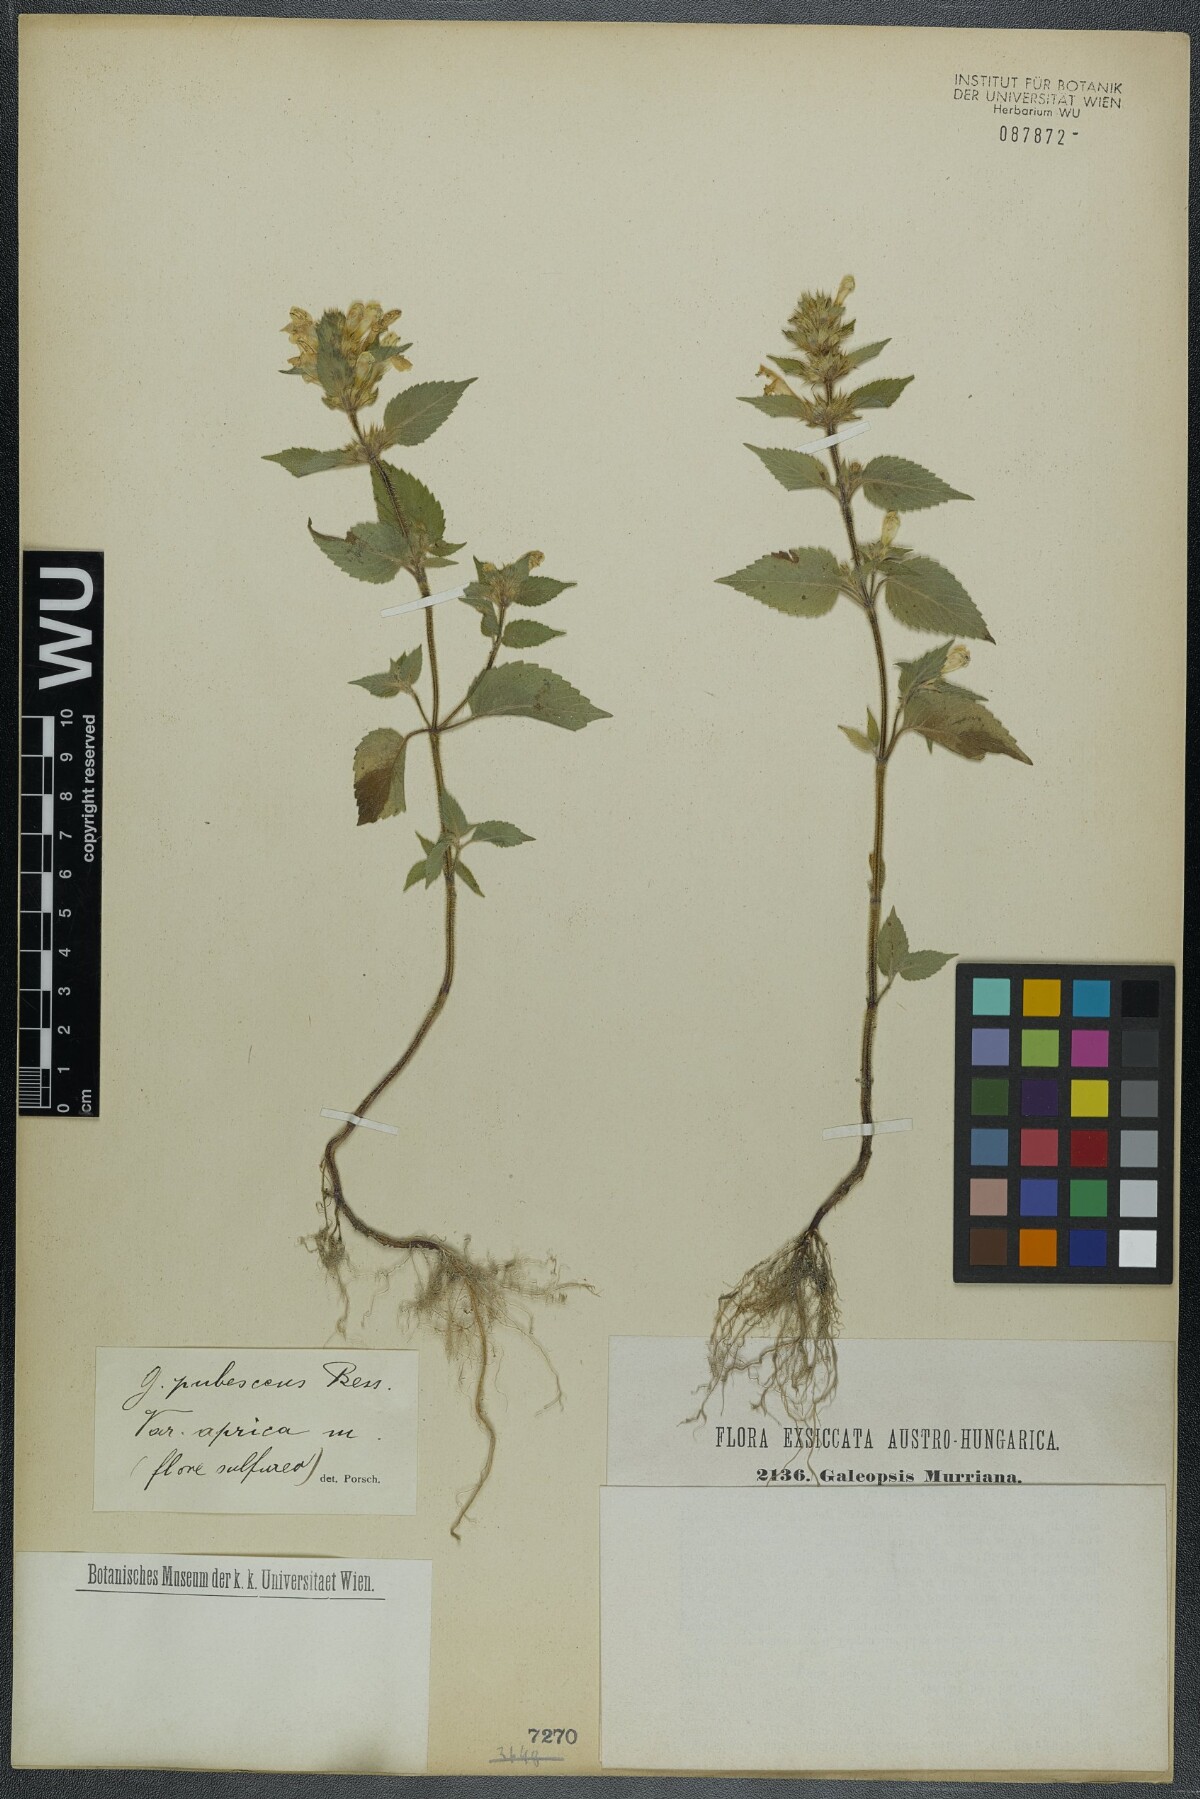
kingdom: Plantae
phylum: Tracheophyta
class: Magnoliopsida
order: Lamiales
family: Lamiaceae
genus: Galeopsis
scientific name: Galeopsis pubescens
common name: Downy hemp-nettle
